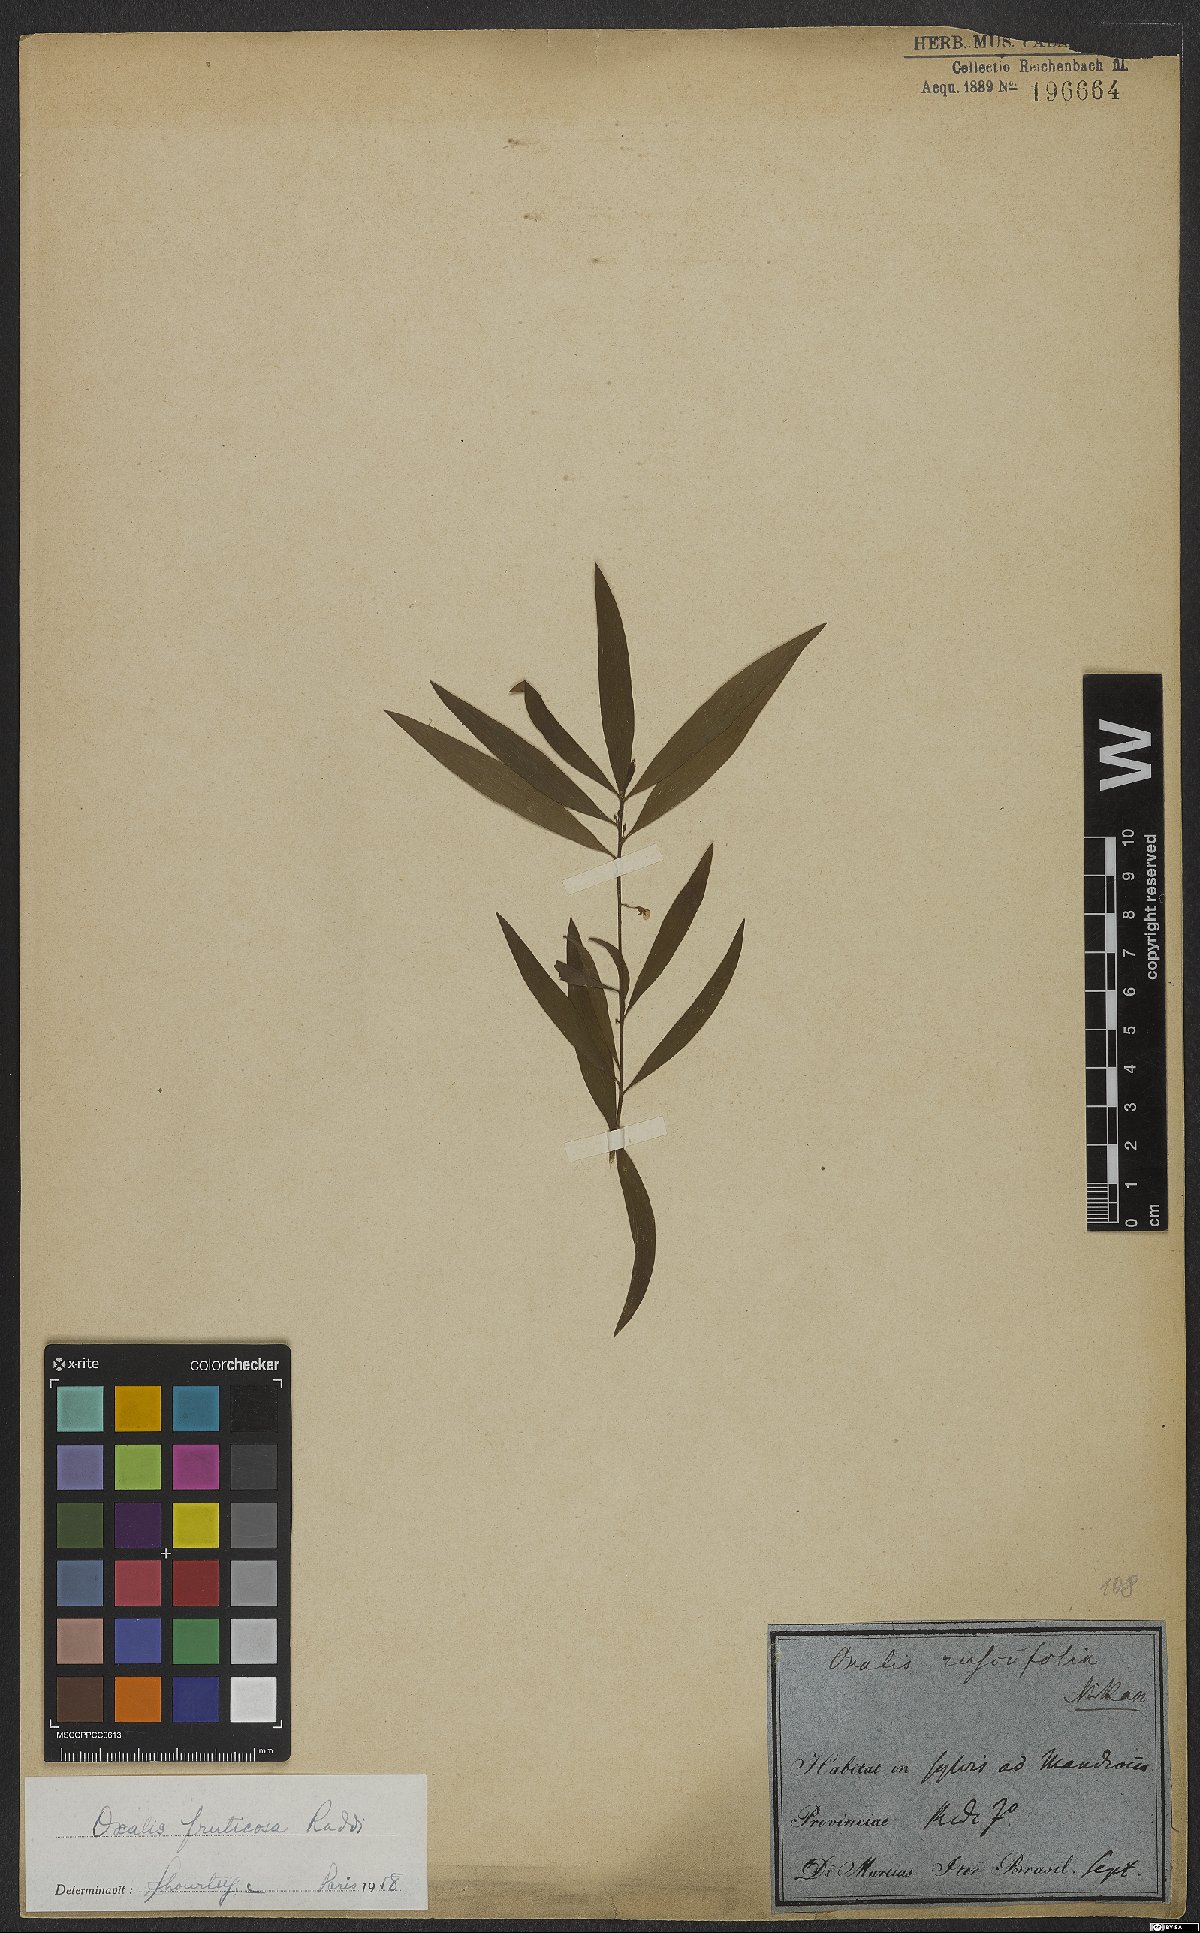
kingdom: Plantae
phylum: Tracheophyta
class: Magnoliopsida
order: Oxalidales
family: Oxalidaceae
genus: Oxalis
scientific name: Oxalis fruticosa
